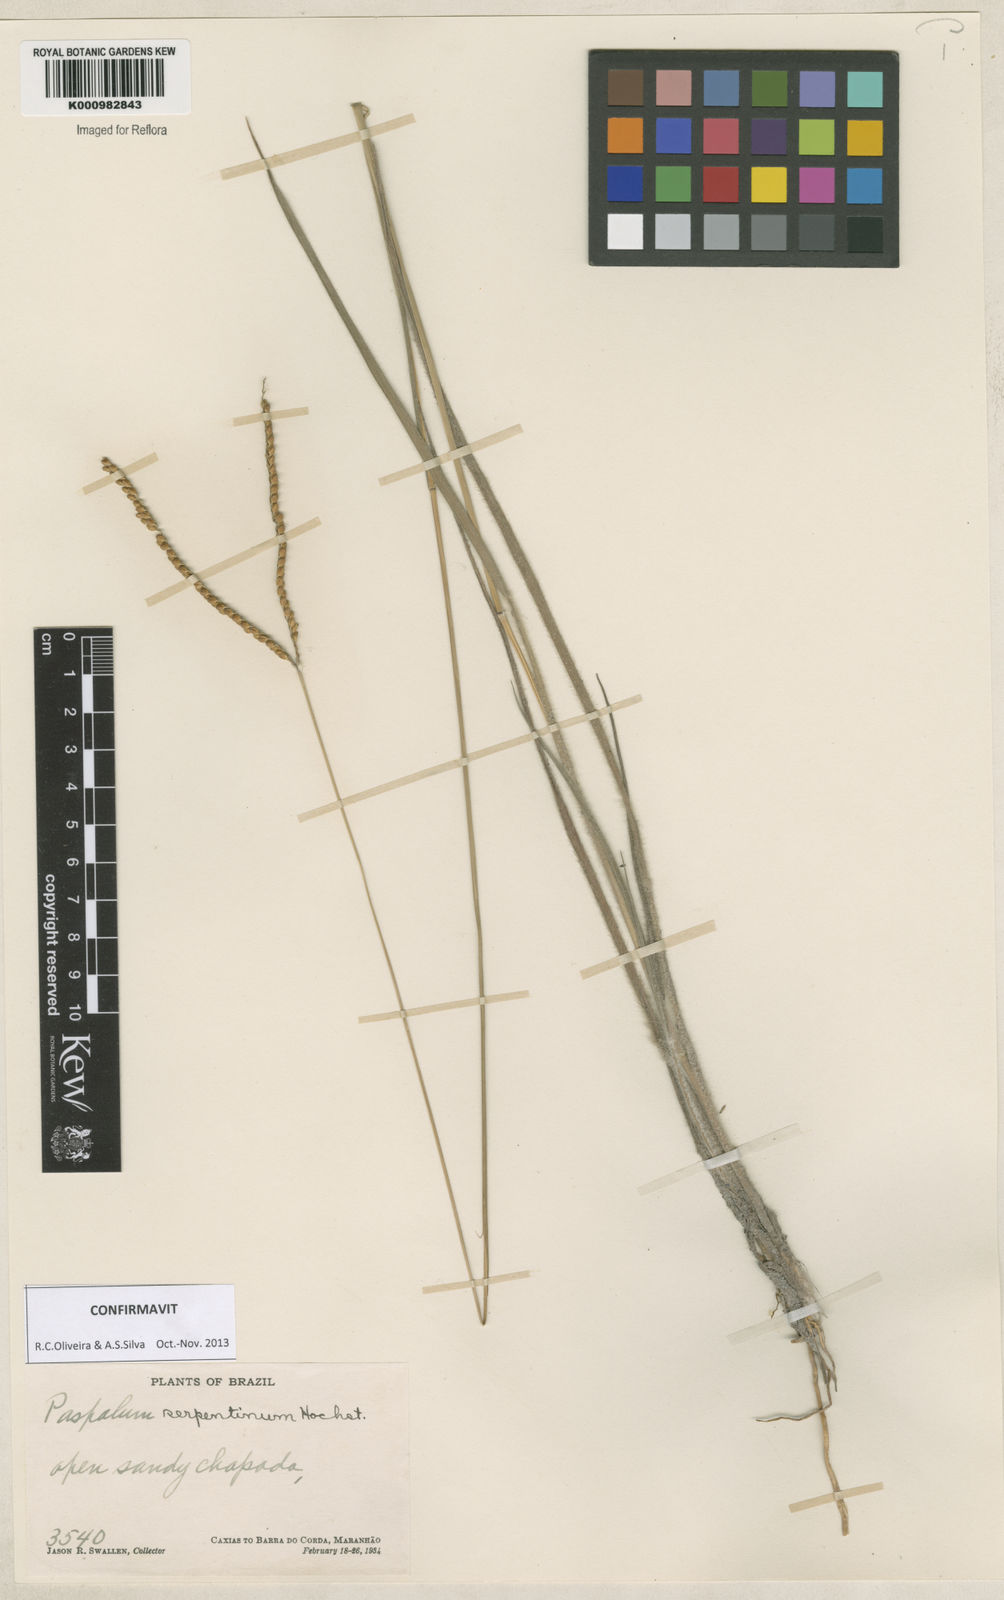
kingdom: Plantae
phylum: Tracheophyta
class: Liliopsida
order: Poales
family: Poaceae
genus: Paspalum
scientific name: Paspalum serpentinum
